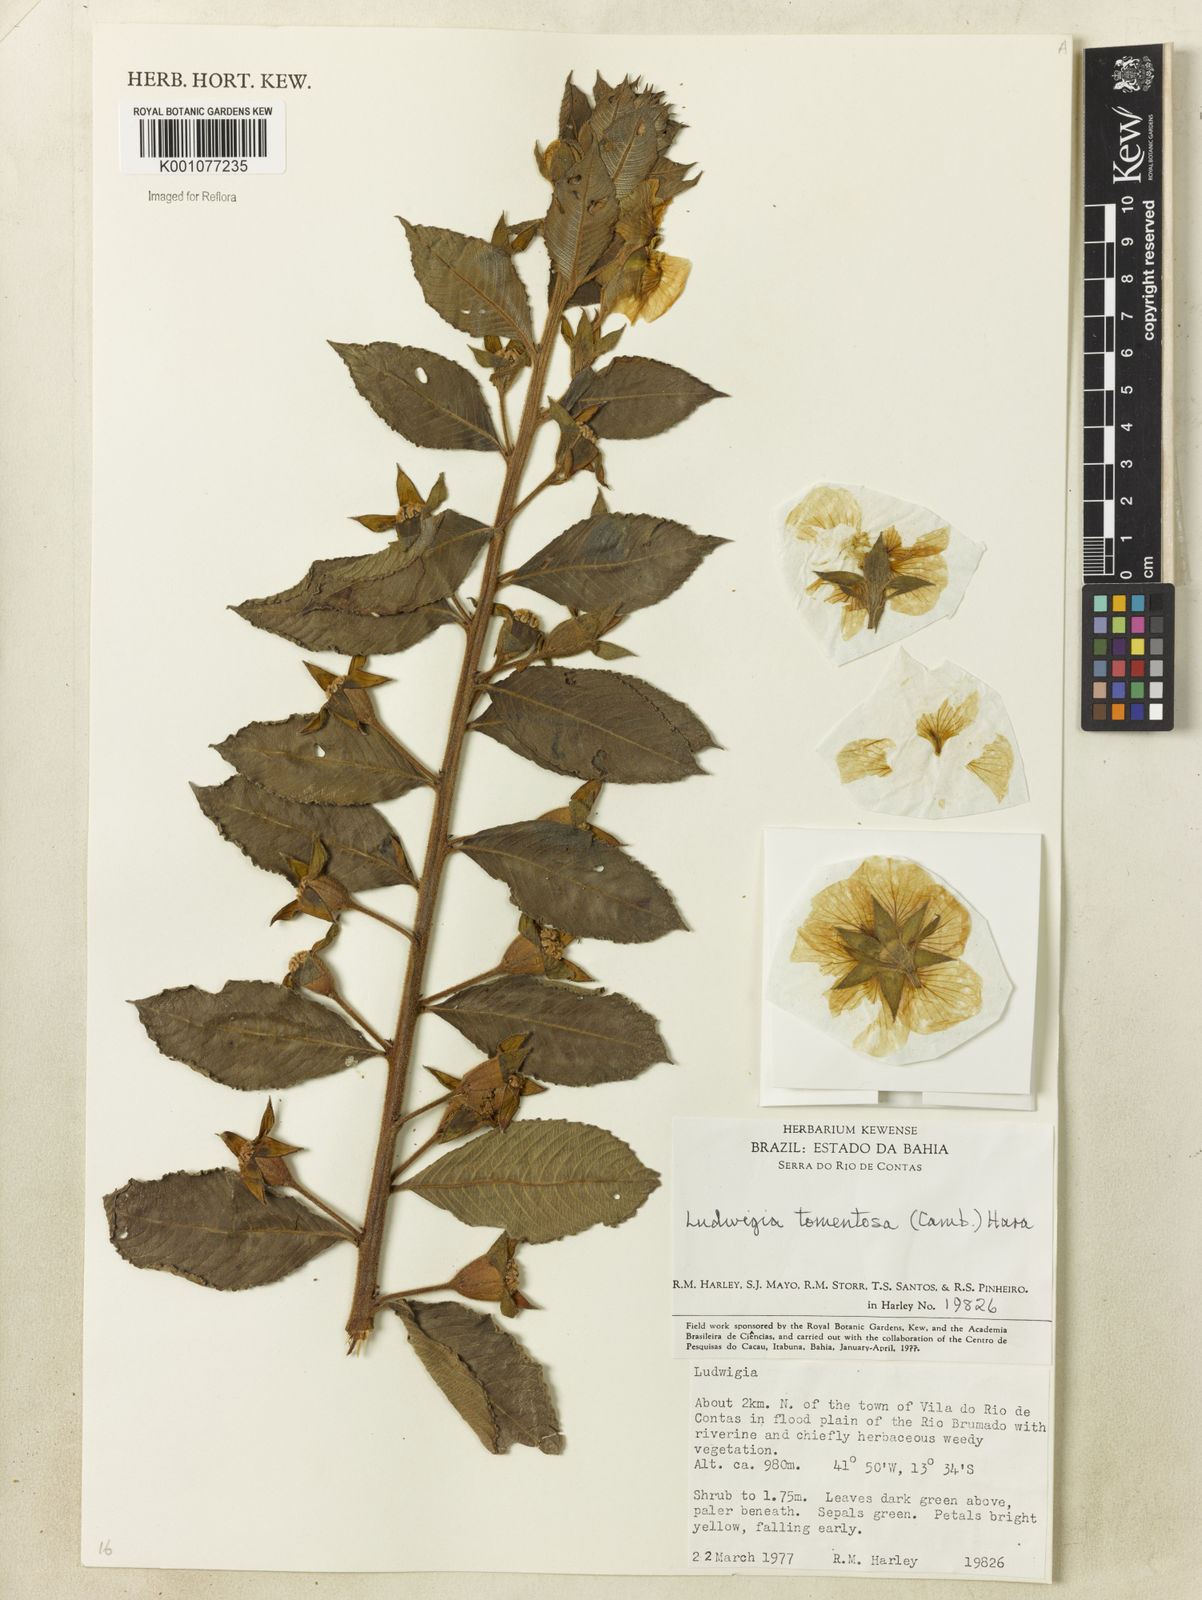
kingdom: Plantae
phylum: Tracheophyta
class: Magnoliopsida
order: Myrtales
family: Onagraceae
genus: Ludwigia
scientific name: Ludwigia tomentosa
